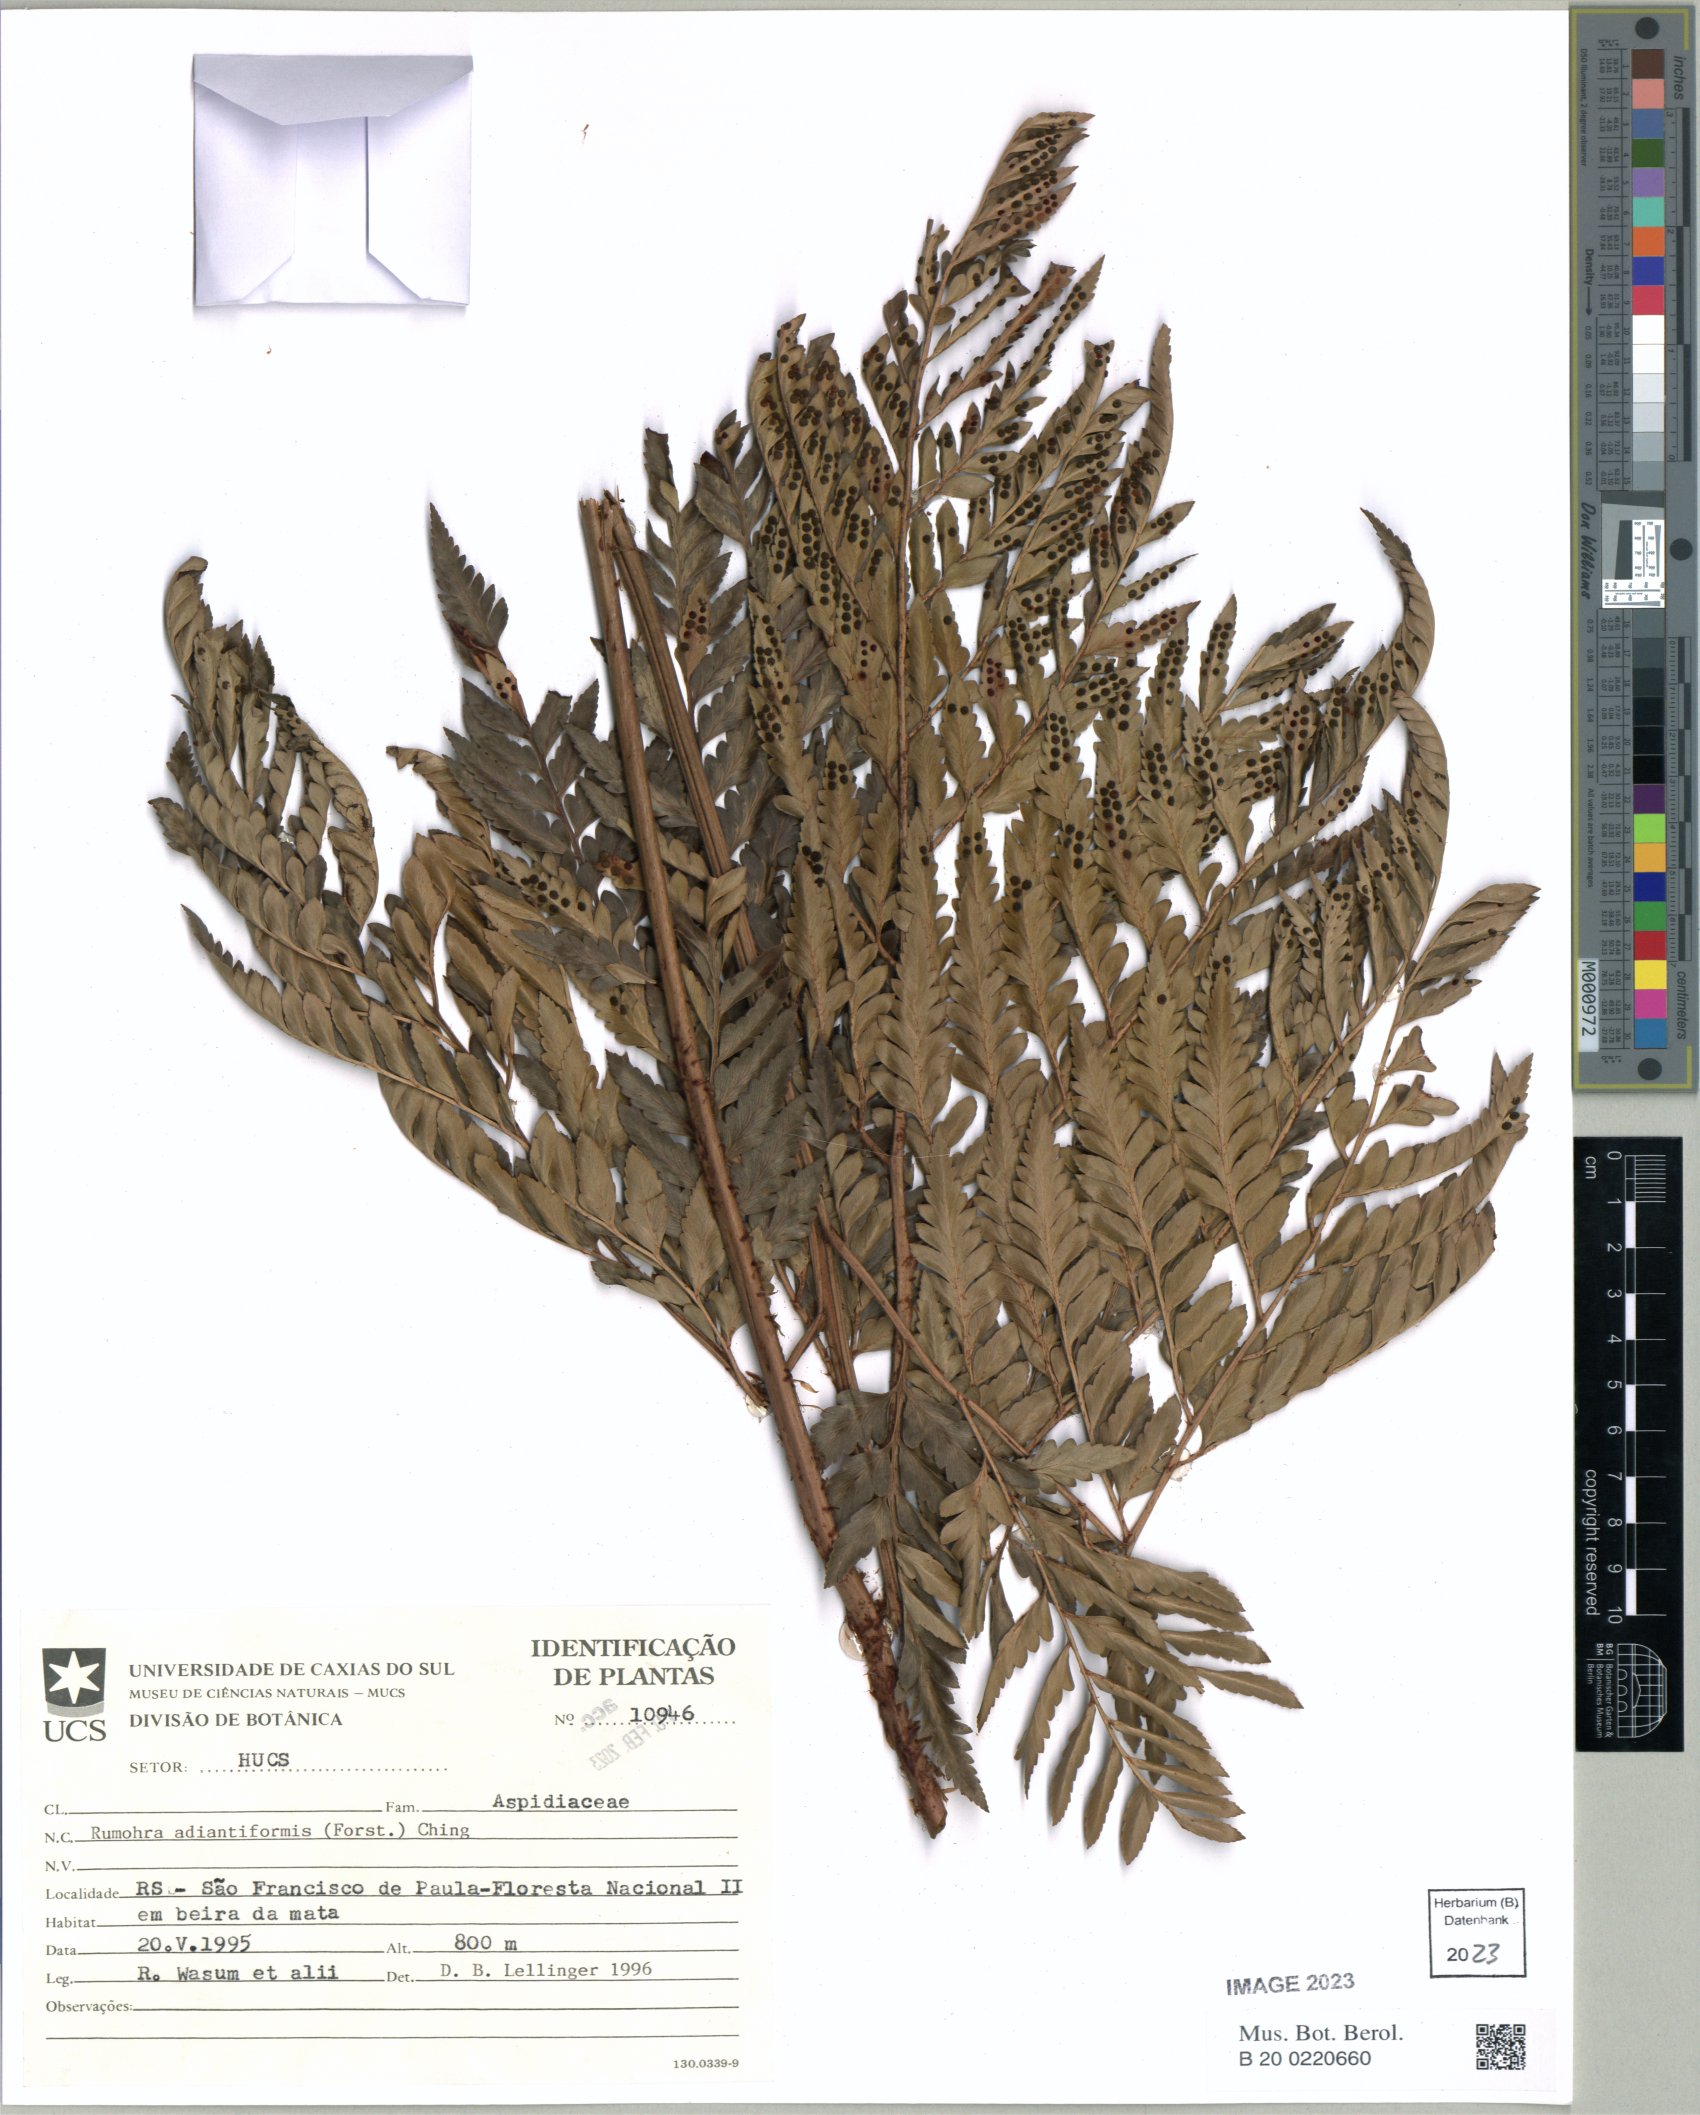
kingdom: Plantae
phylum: Tracheophyta
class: Polypodiopsida
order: Polypodiales
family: Dryopteridaceae
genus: Rumohra
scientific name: Rumohra adiantiformis
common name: Leather fern
